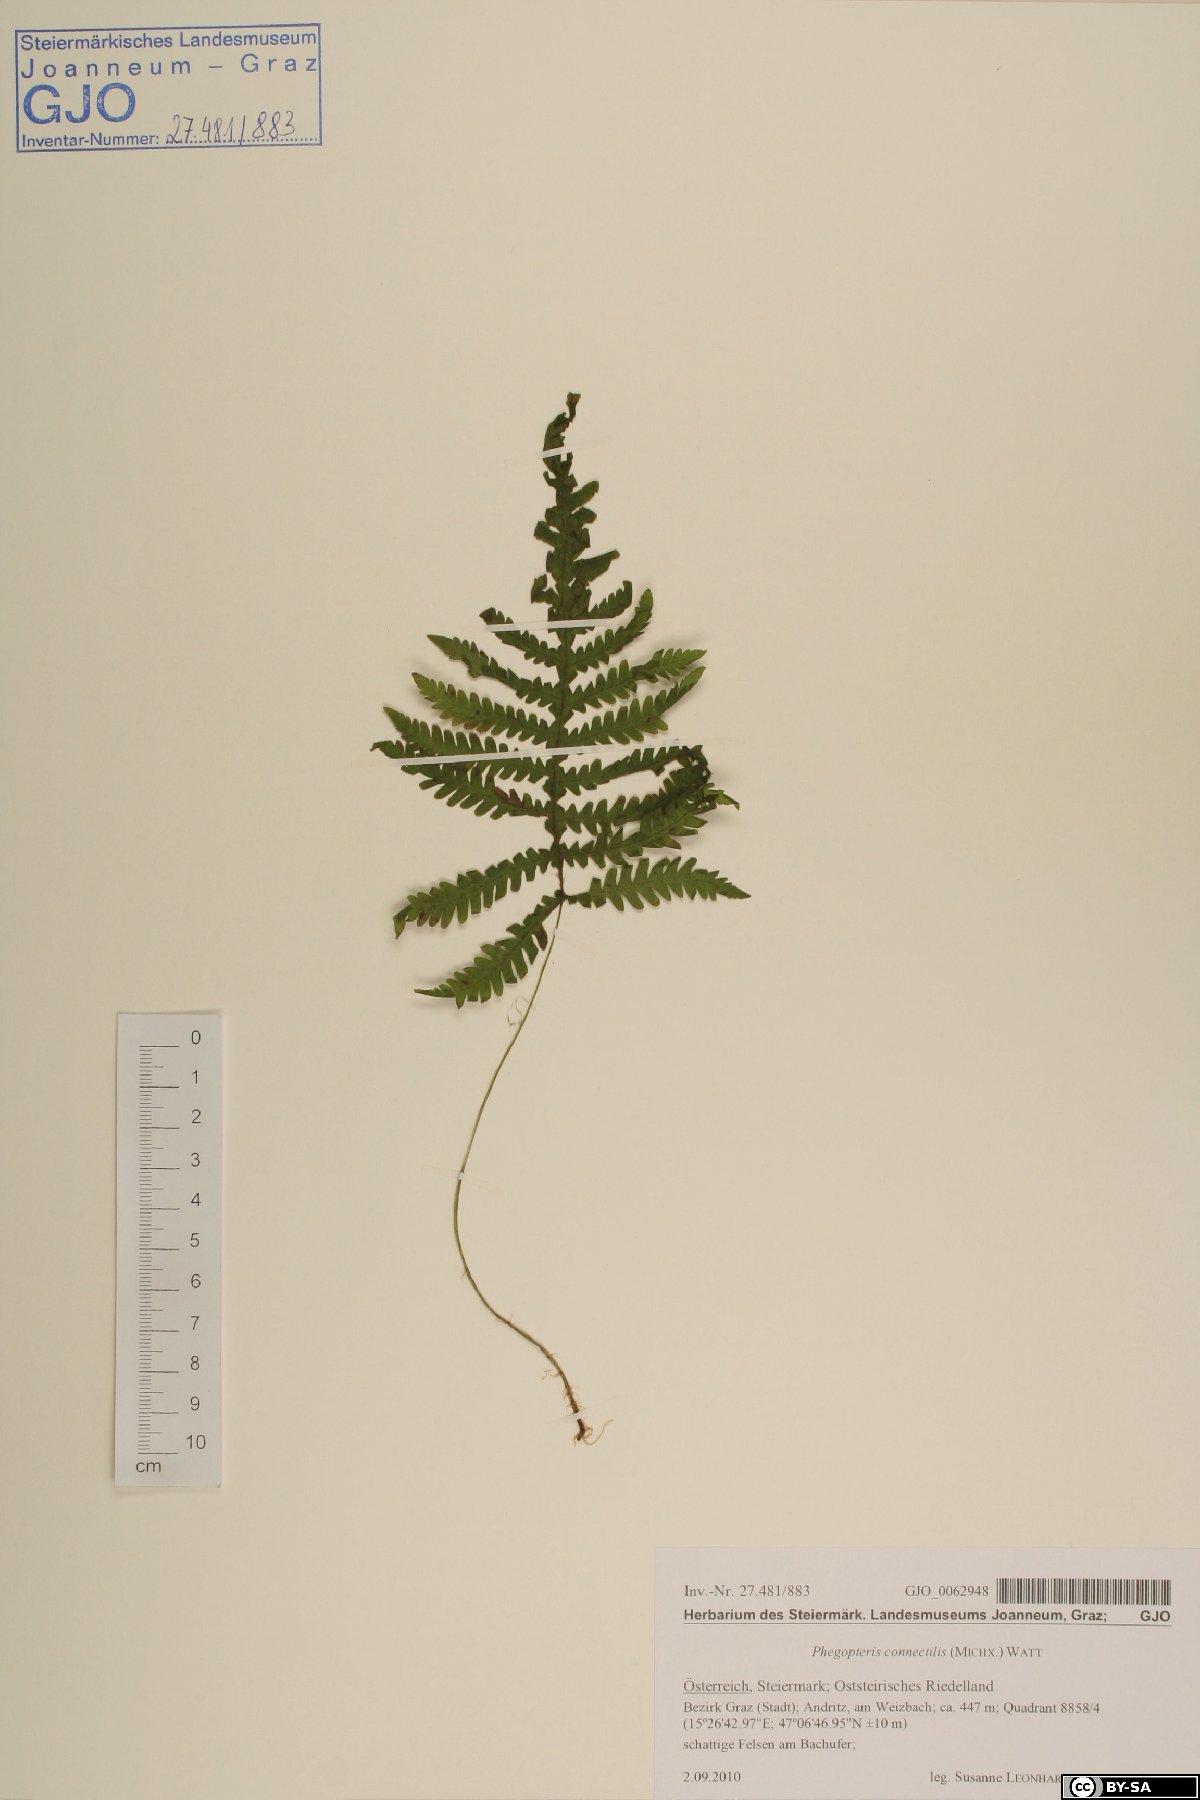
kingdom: Plantae
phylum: Tracheophyta
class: Polypodiopsida
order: Polypodiales
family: Thelypteridaceae
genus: Phegopteris
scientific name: Phegopteris connectilis
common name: Beech fern
